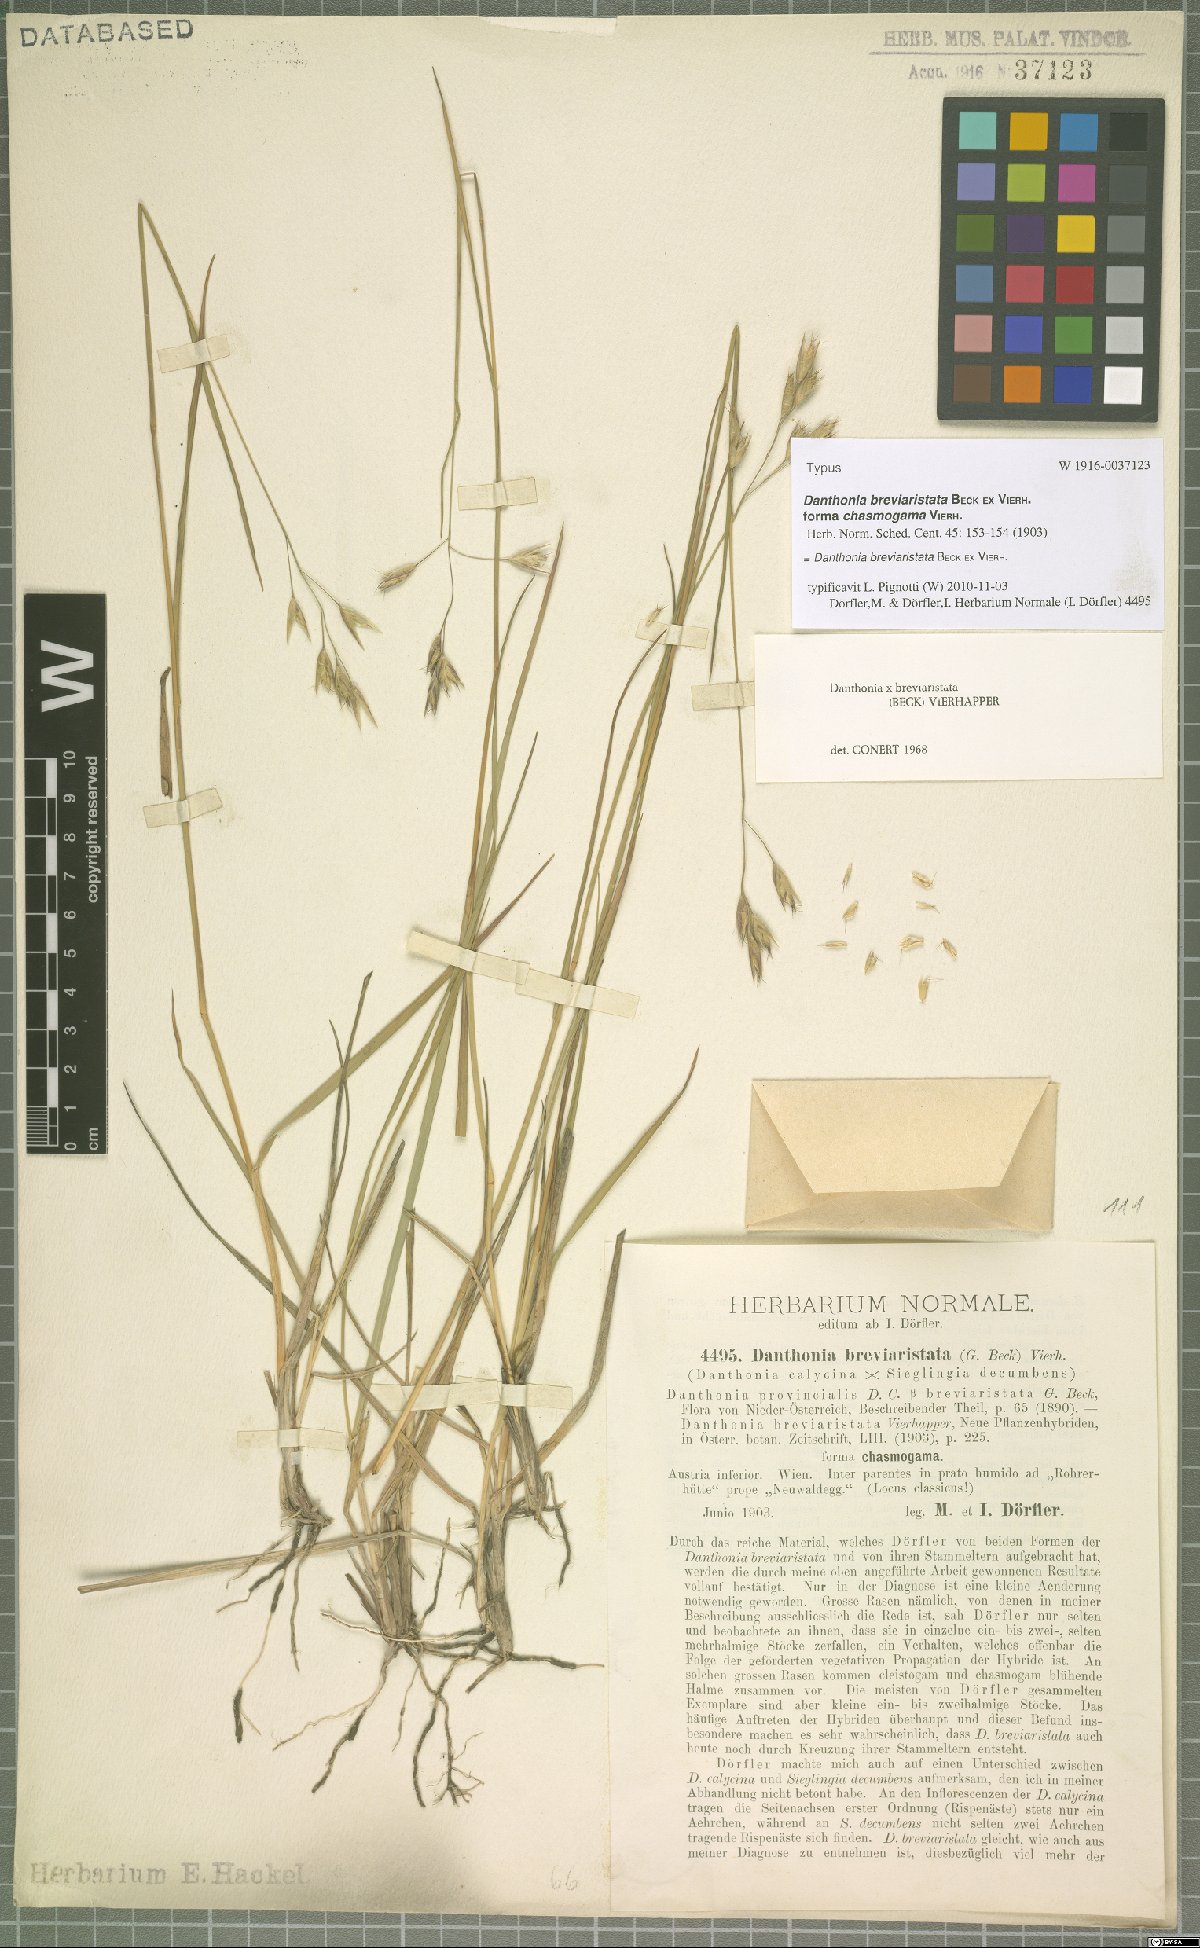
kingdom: Plantae
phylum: Tracheophyta
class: Liliopsida
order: Poales
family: Poaceae
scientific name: Poaceae
